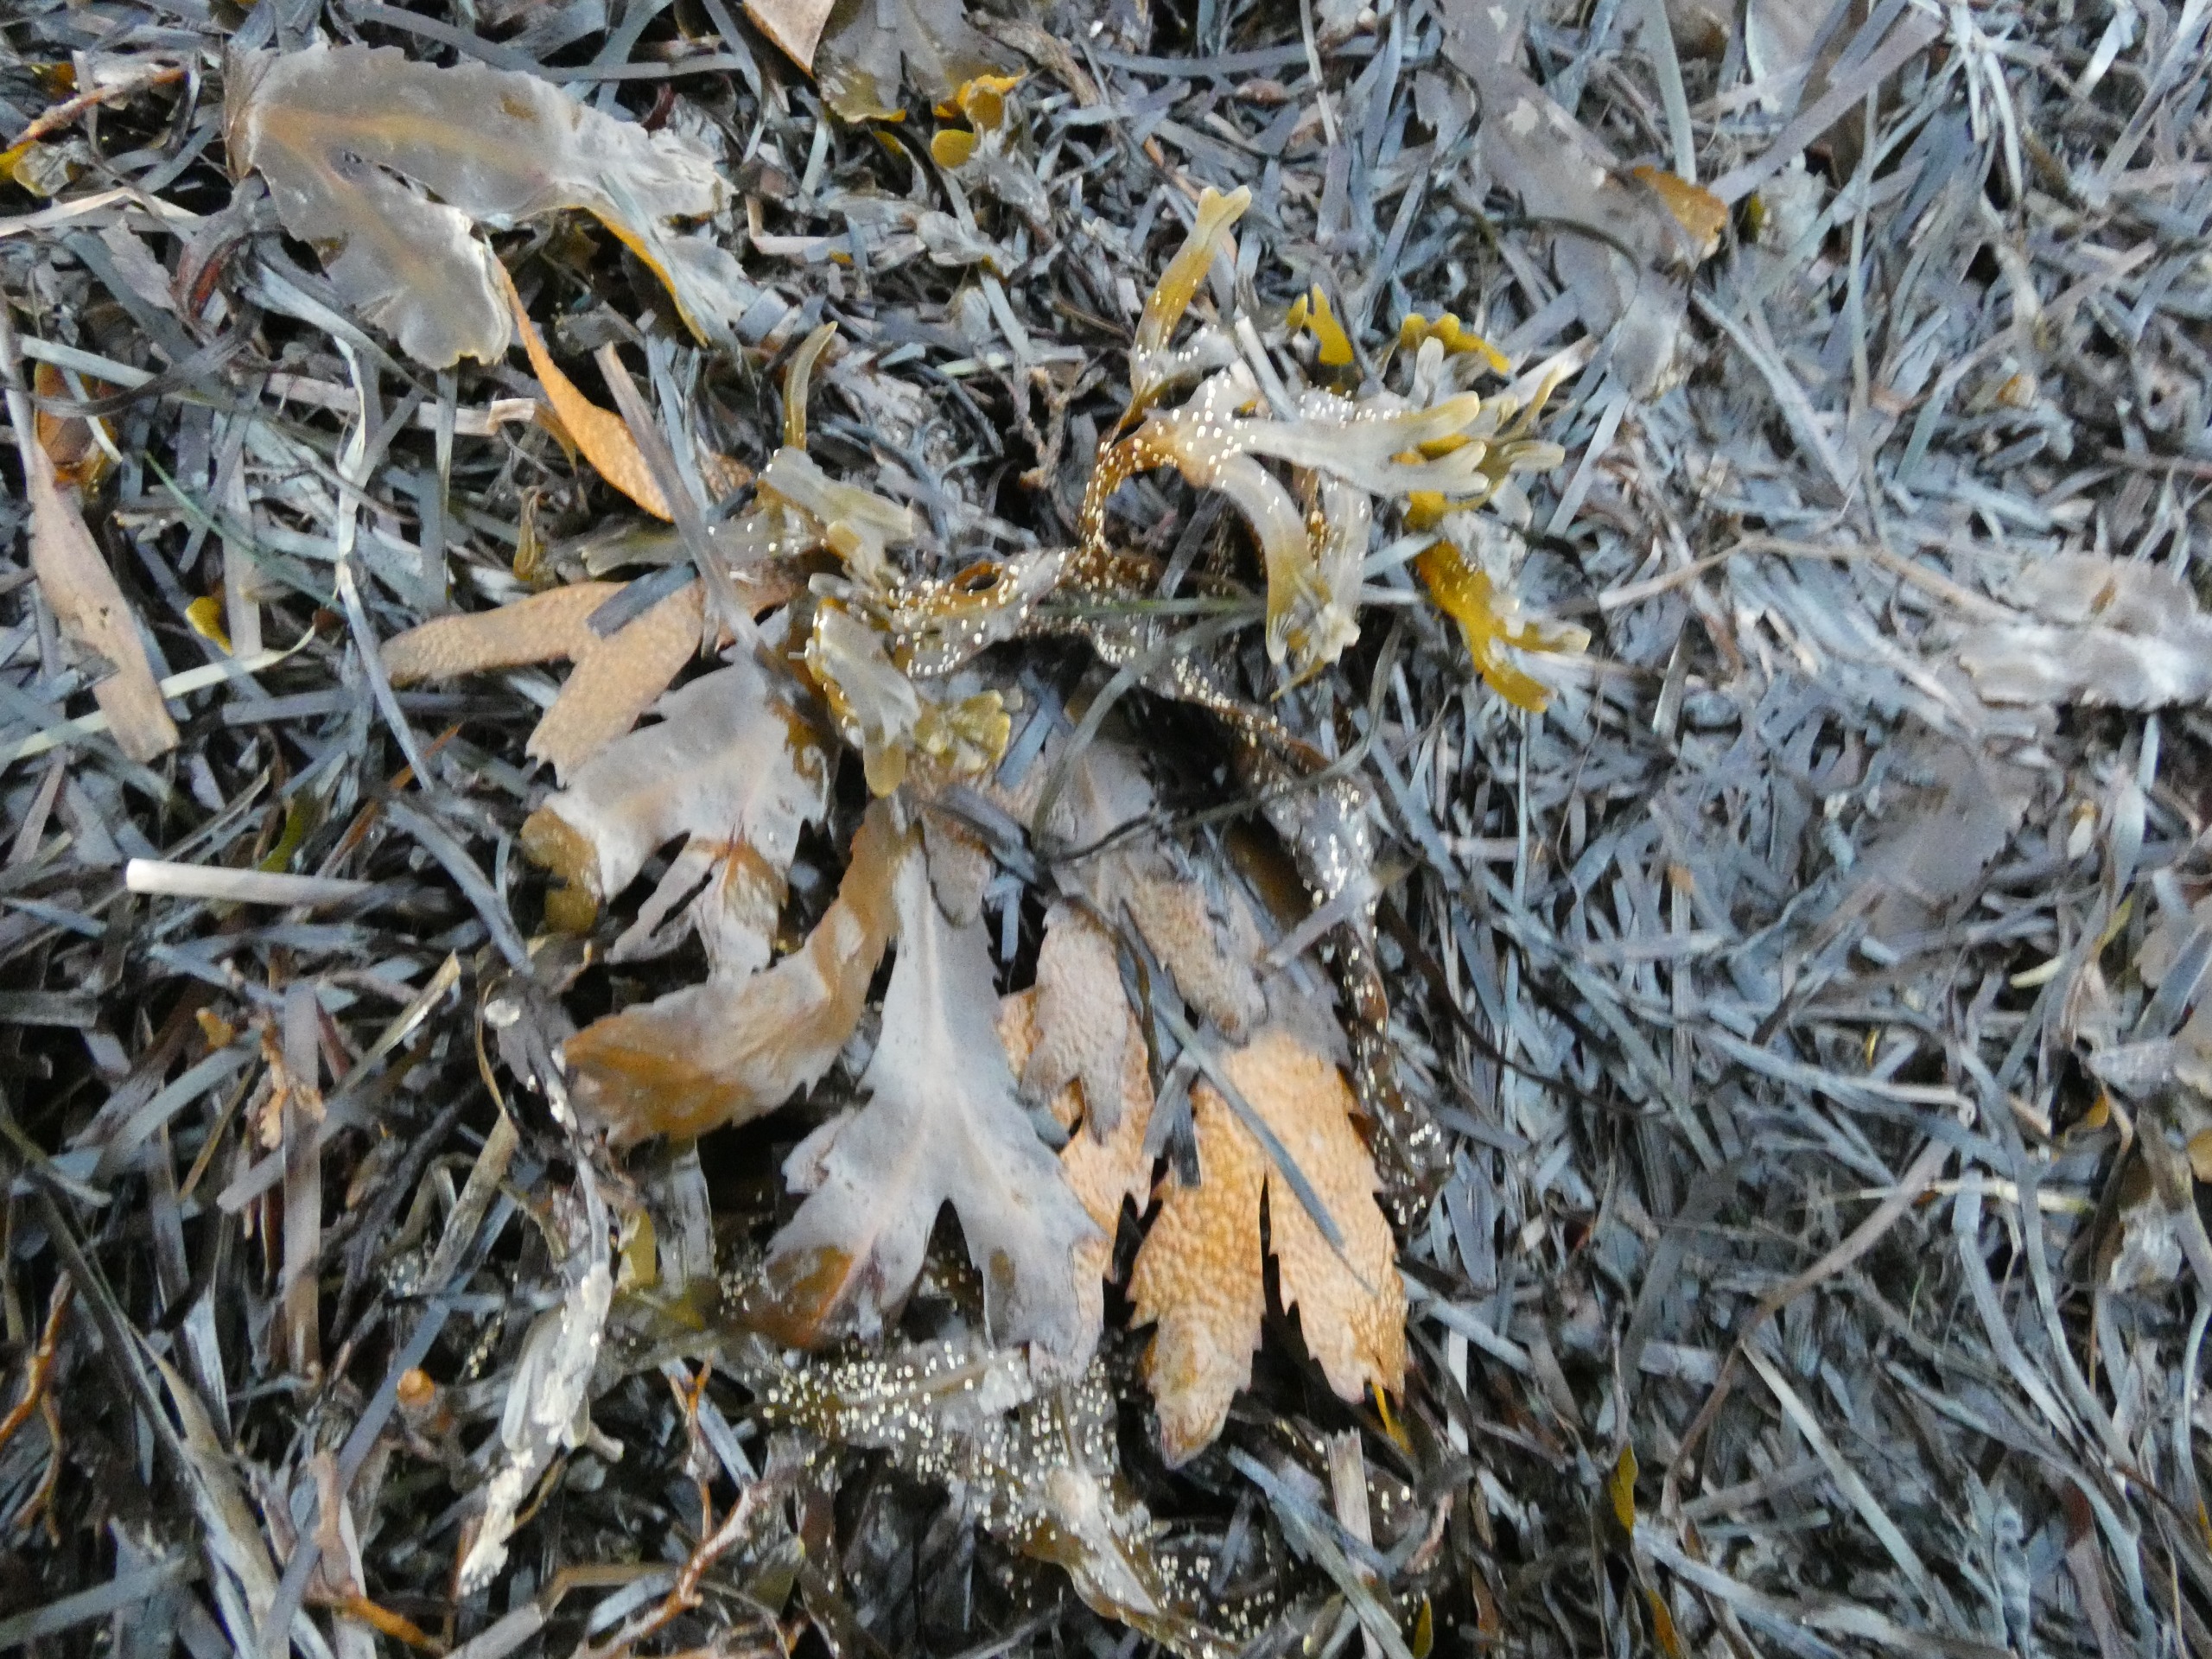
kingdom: Chromista
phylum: Ochrophyta
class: Phaeophyceae
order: Fucales
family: Fucaceae
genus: Fucus
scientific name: Fucus serratus
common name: Savtang
